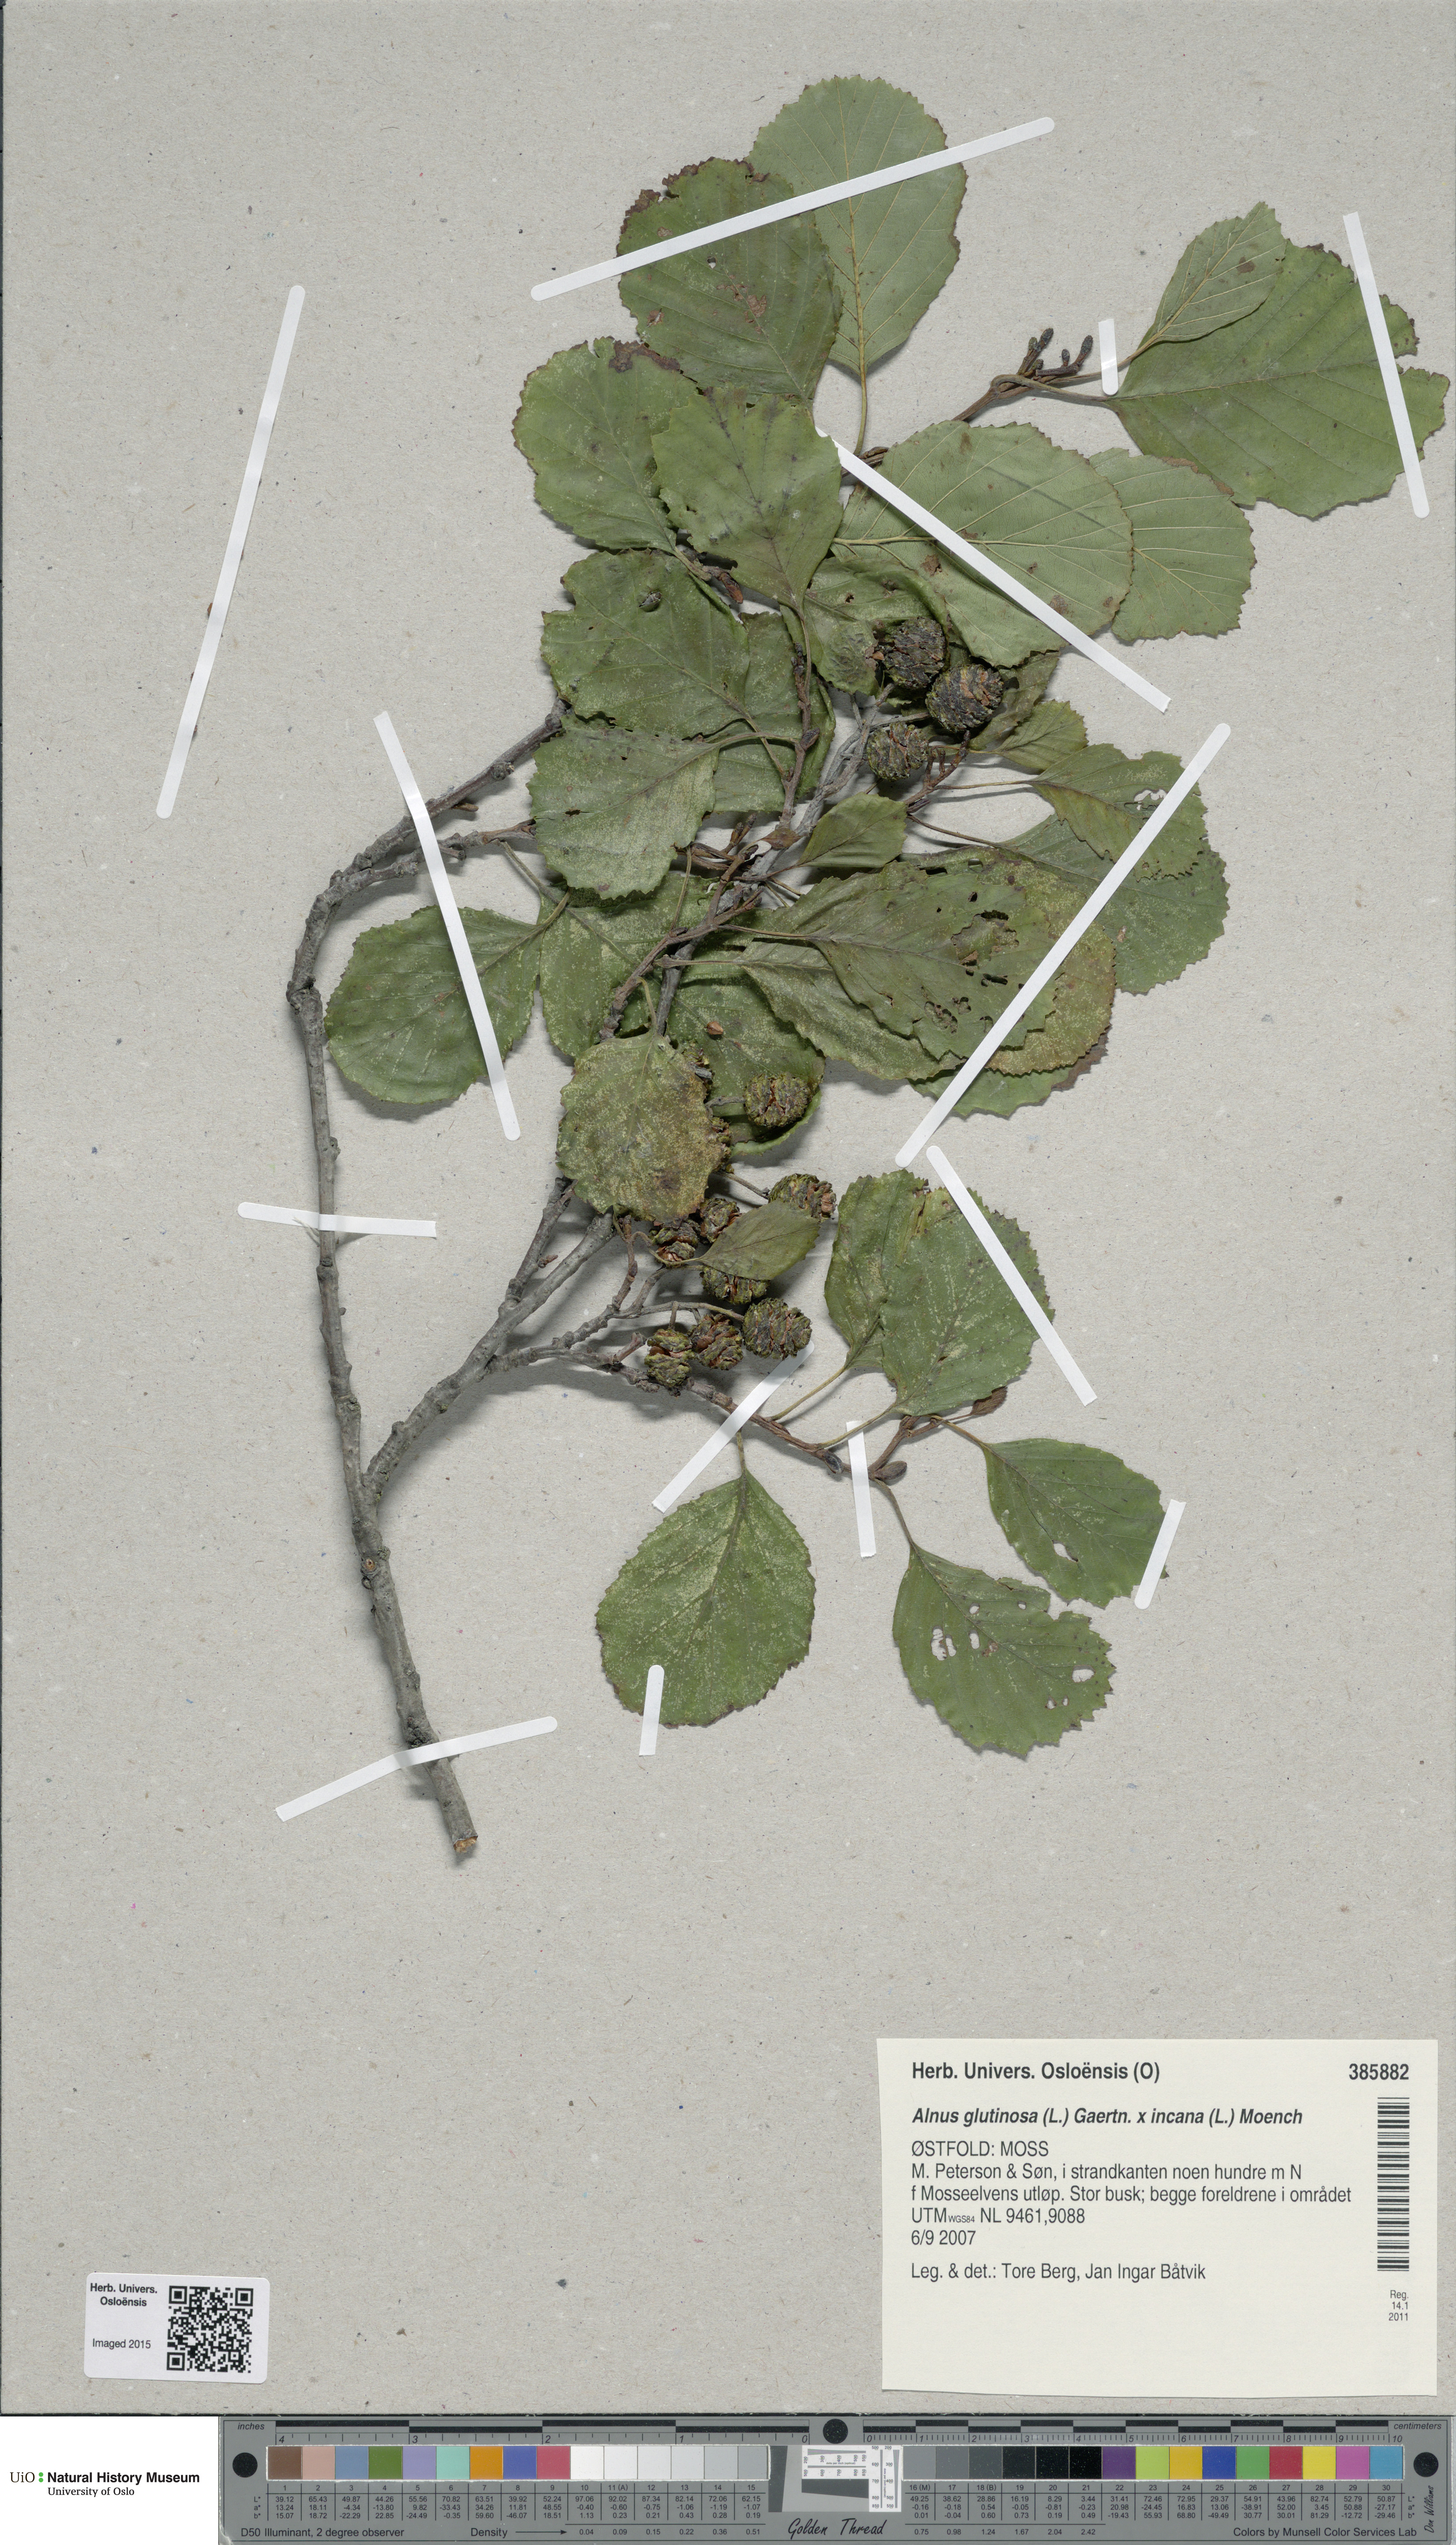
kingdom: Plantae
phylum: Tracheophyta
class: Magnoliopsida
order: Fagales
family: Betulaceae
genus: Alnus
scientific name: Alnus
